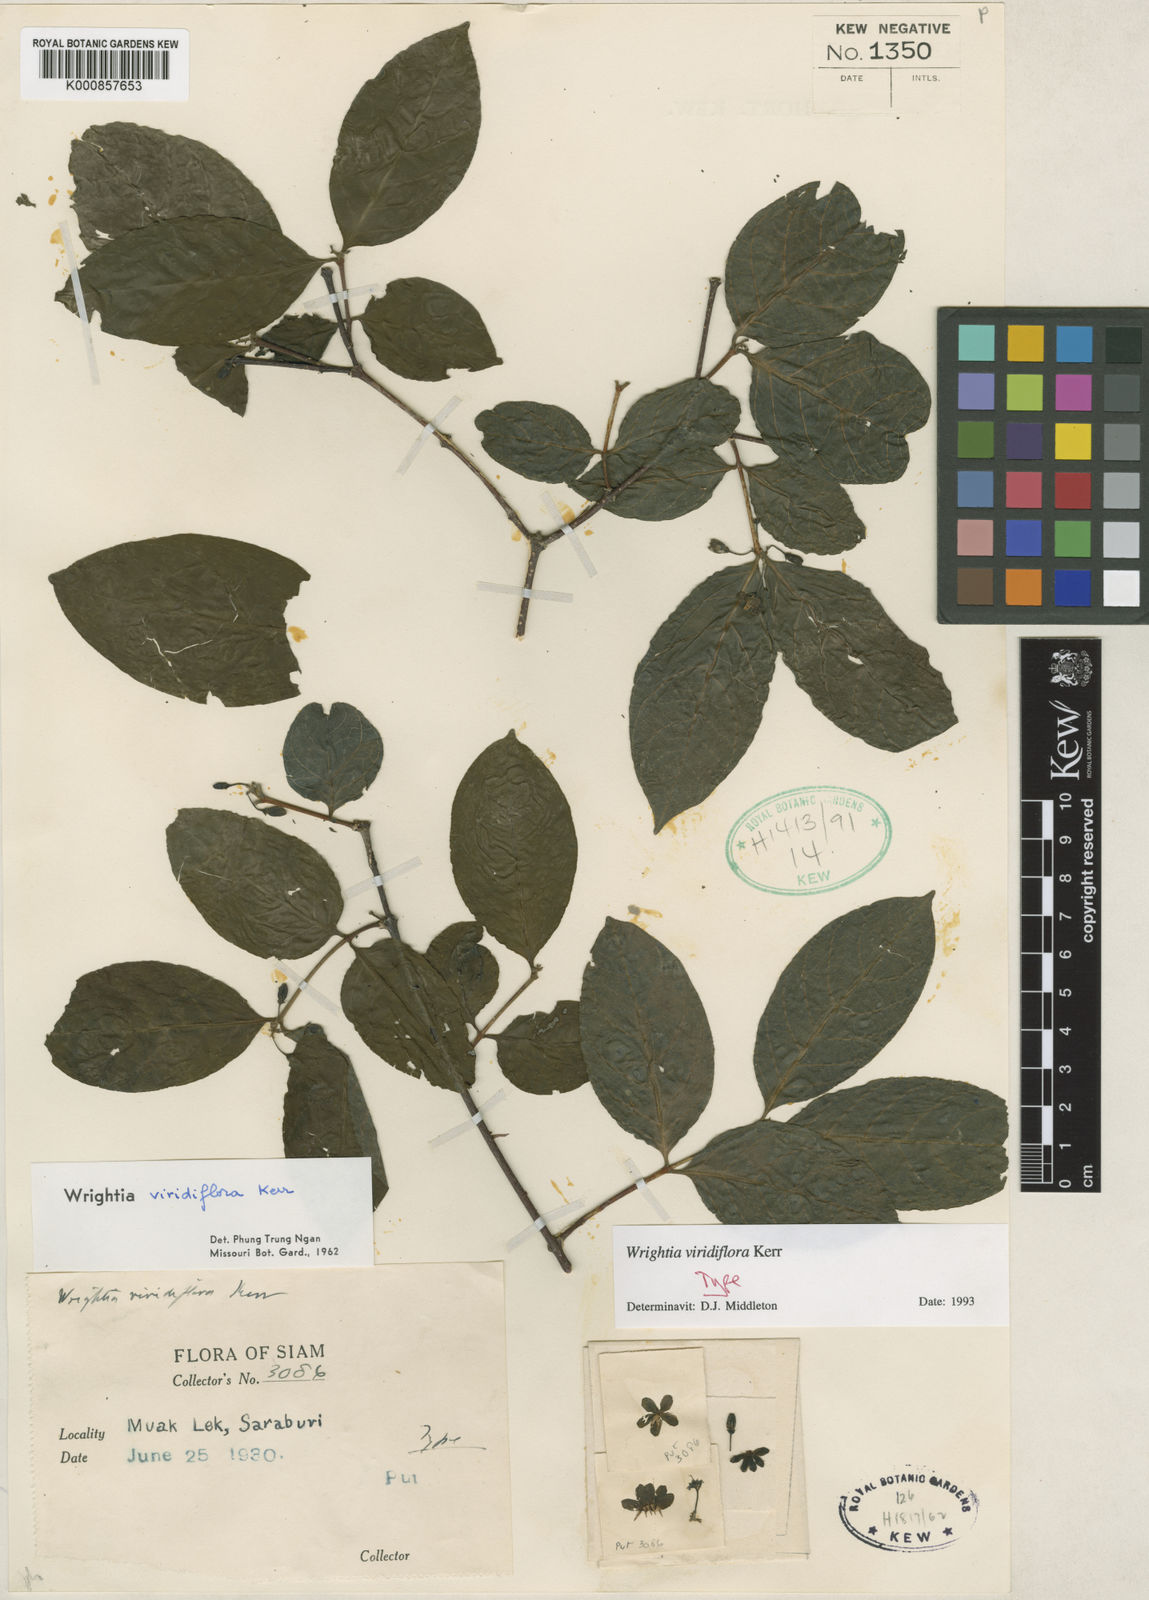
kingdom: Plantae
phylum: Tracheophyta
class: Magnoliopsida
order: Gentianales
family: Apocynaceae
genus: Wrightia
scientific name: Wrightia viridiflora
